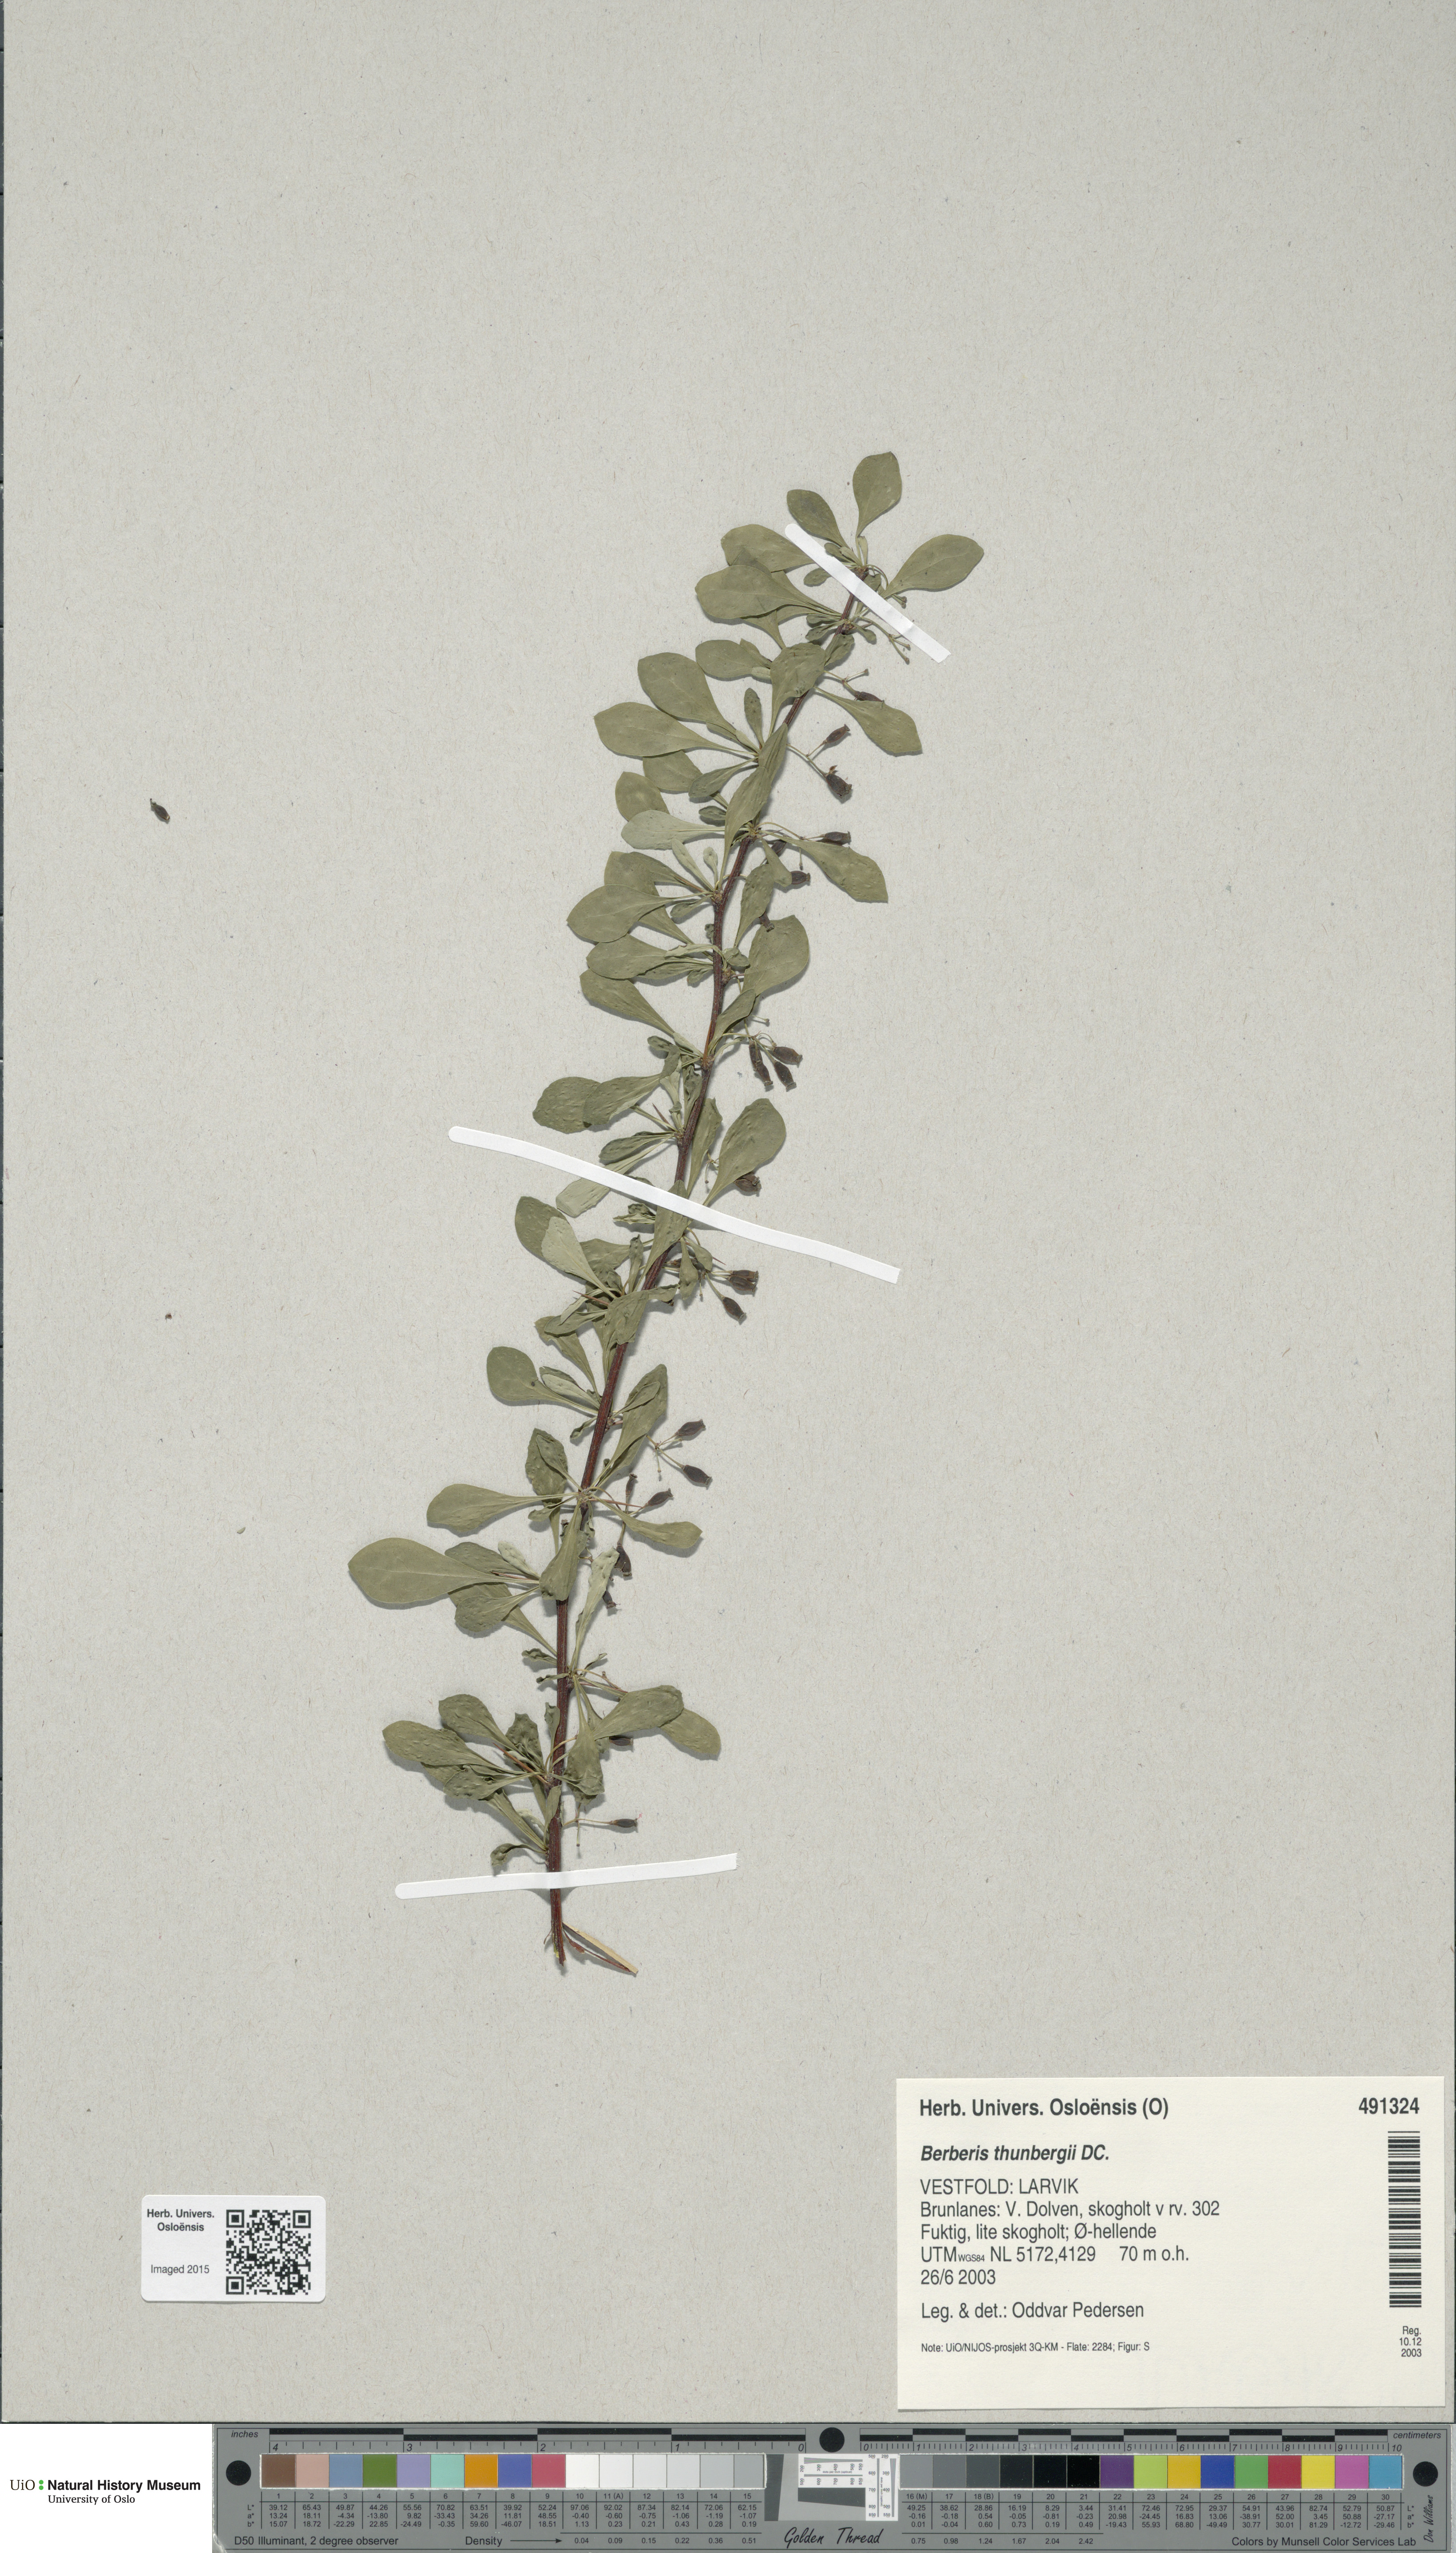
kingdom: Plantae
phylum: Tracheophyta
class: Magnoliopsida
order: Ranunculales
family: Berberidaceae
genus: Berberis
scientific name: Berberis thunbergii
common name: Japanese barberry
